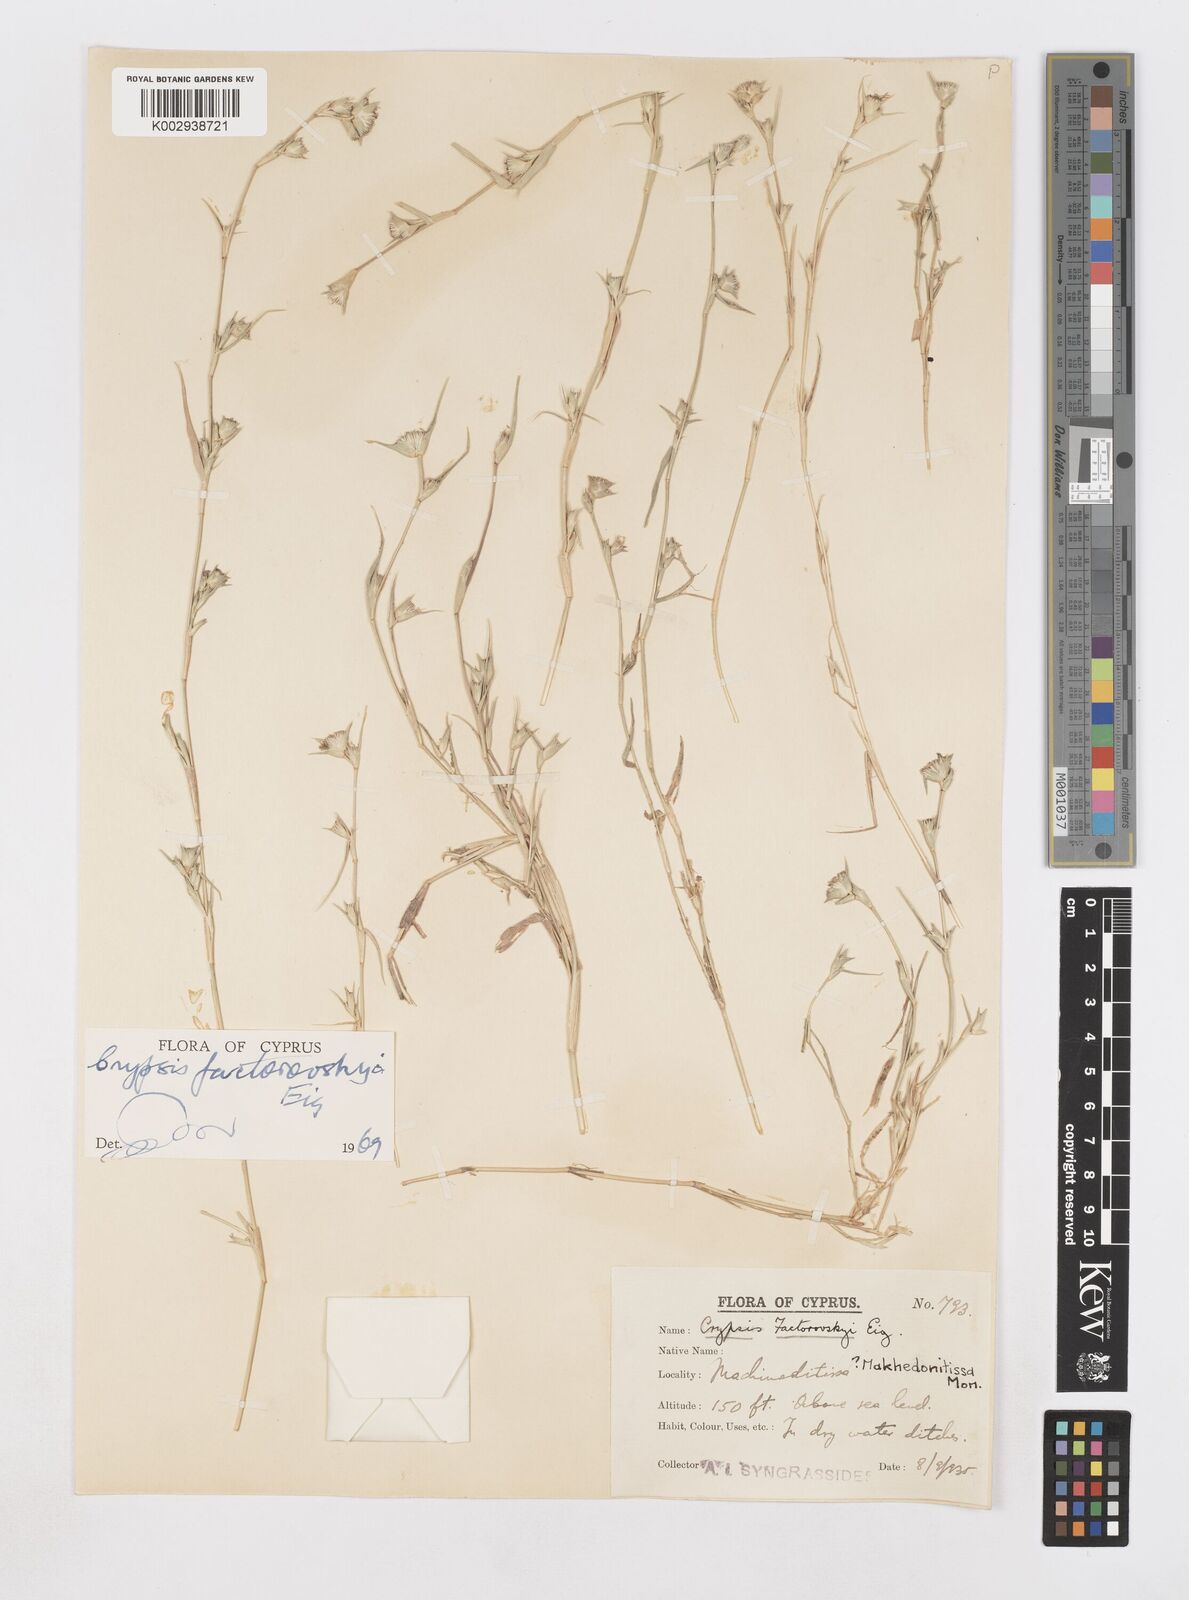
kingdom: Plantae
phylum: Tracheophyta
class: Liliopsida
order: Poales
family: Poaceae
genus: Sporobolus
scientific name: Sporobolus factorovskyi
